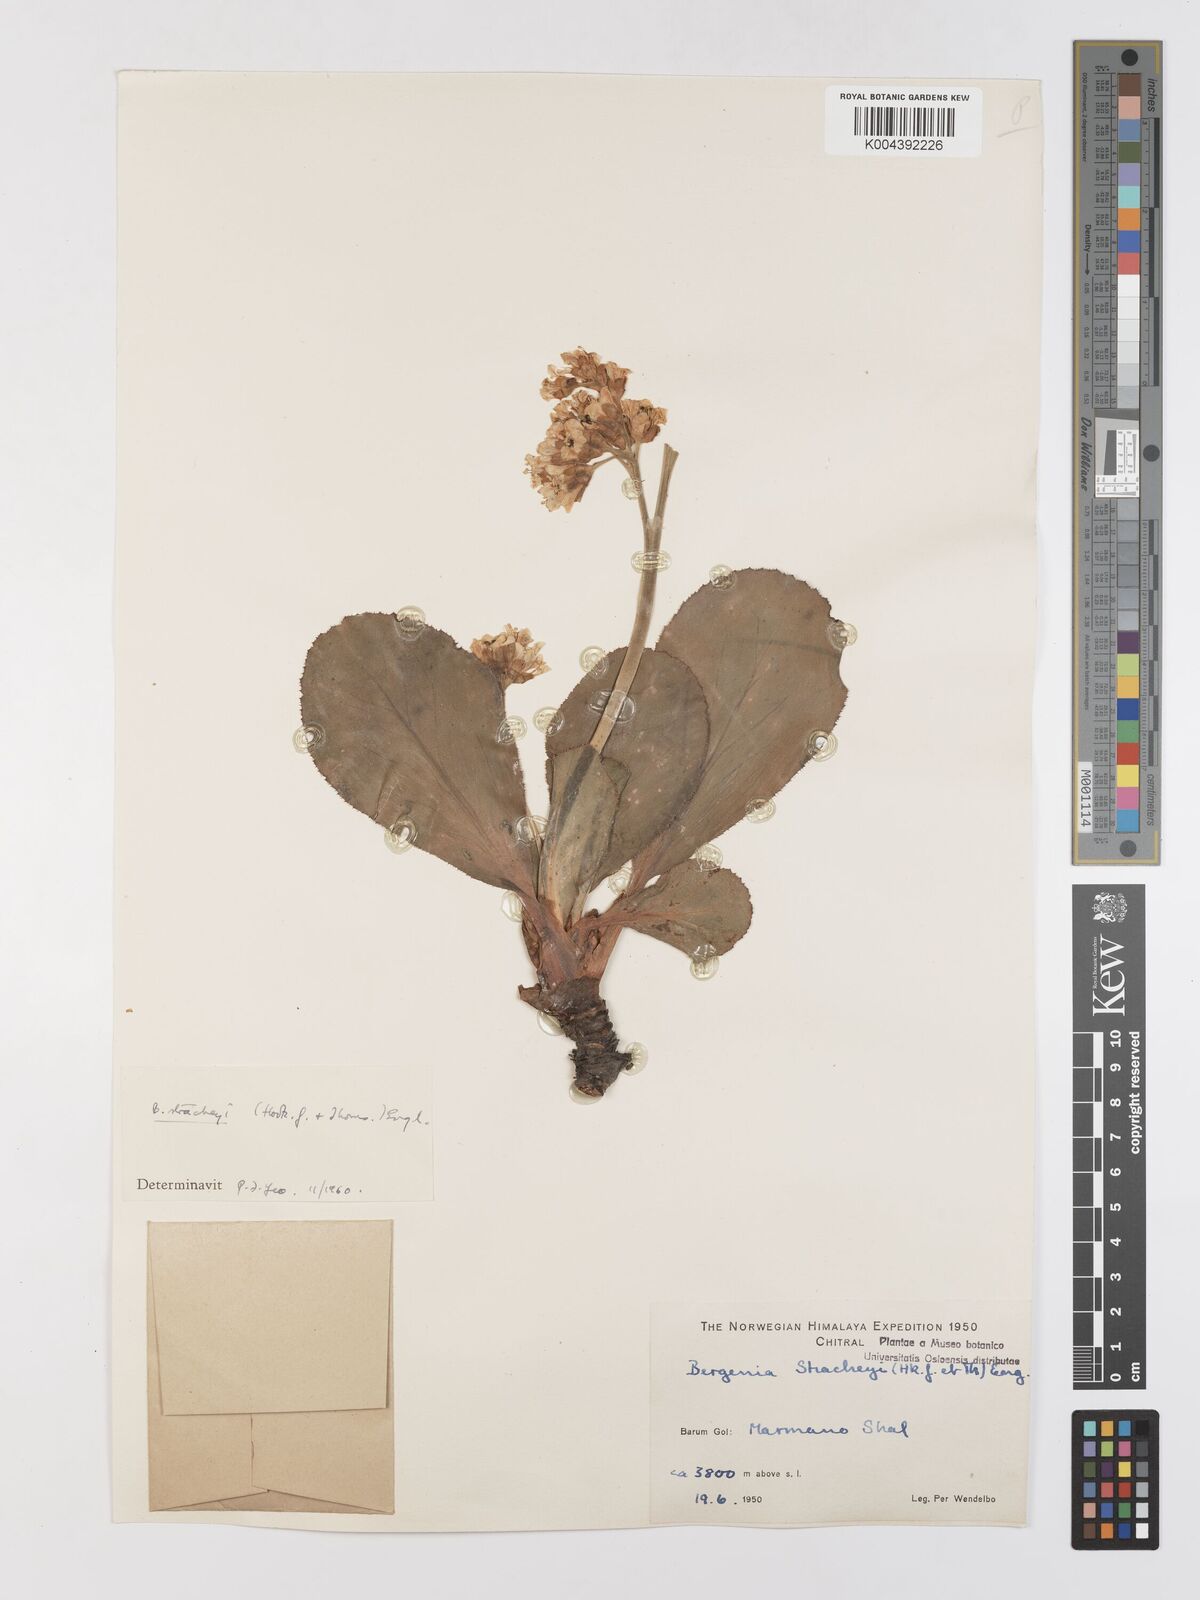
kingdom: Plantae
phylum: Tracheophyta
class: Magnoliopsida
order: Saxifragales
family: Saxifragaceae
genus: Bergenia
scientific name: Bergenia stracheyi
